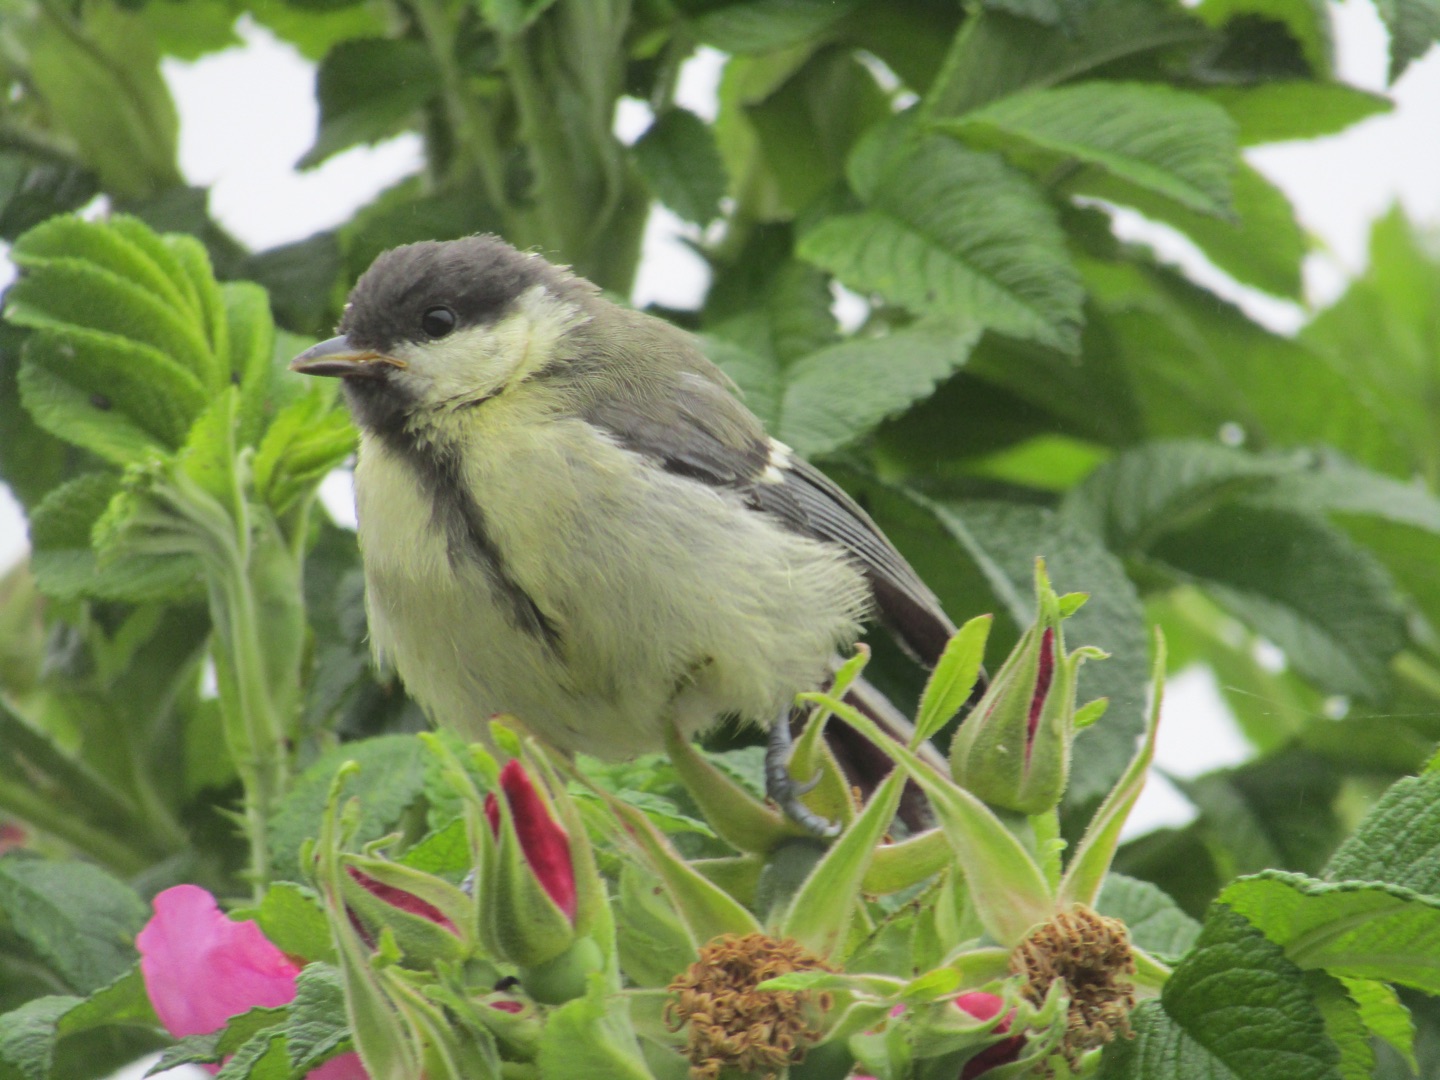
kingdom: Animalia
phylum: Chordata
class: Aves
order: Passeriformes
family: Paridae
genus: Parus
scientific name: Parus major
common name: Musvit
